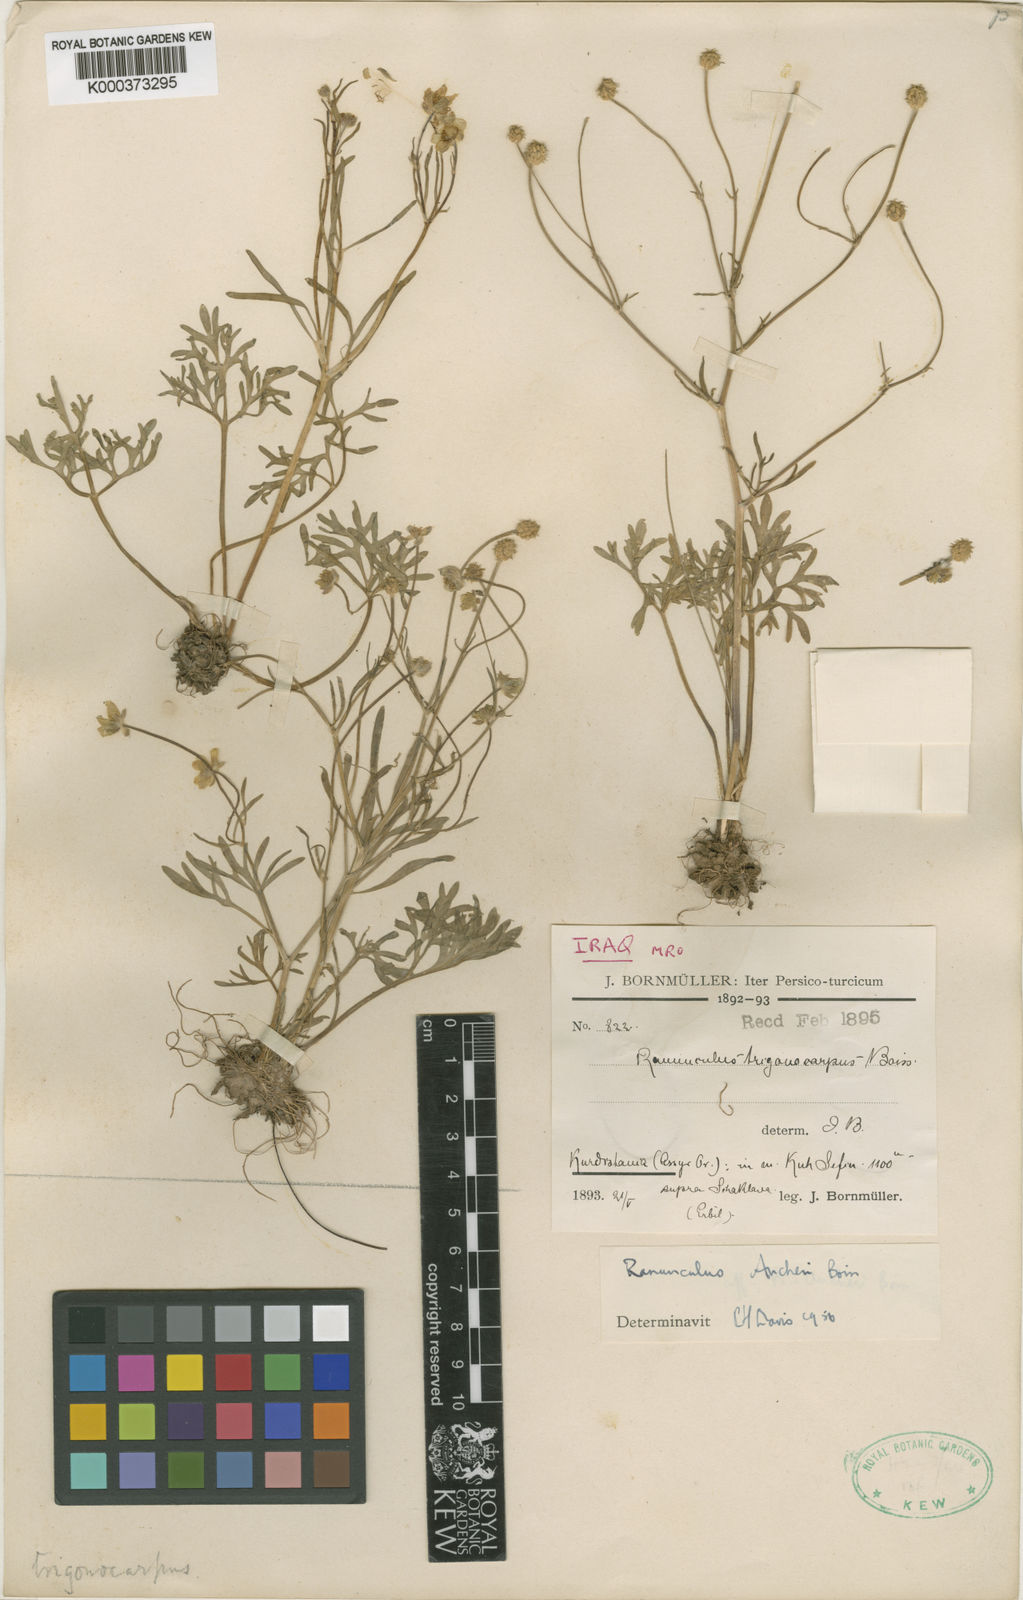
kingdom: Plantae
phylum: Tracheophyta
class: Magnoliopsida
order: Ranunculales
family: Ranunculaceae
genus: Ranunculus
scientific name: Ranunculus aucheri
